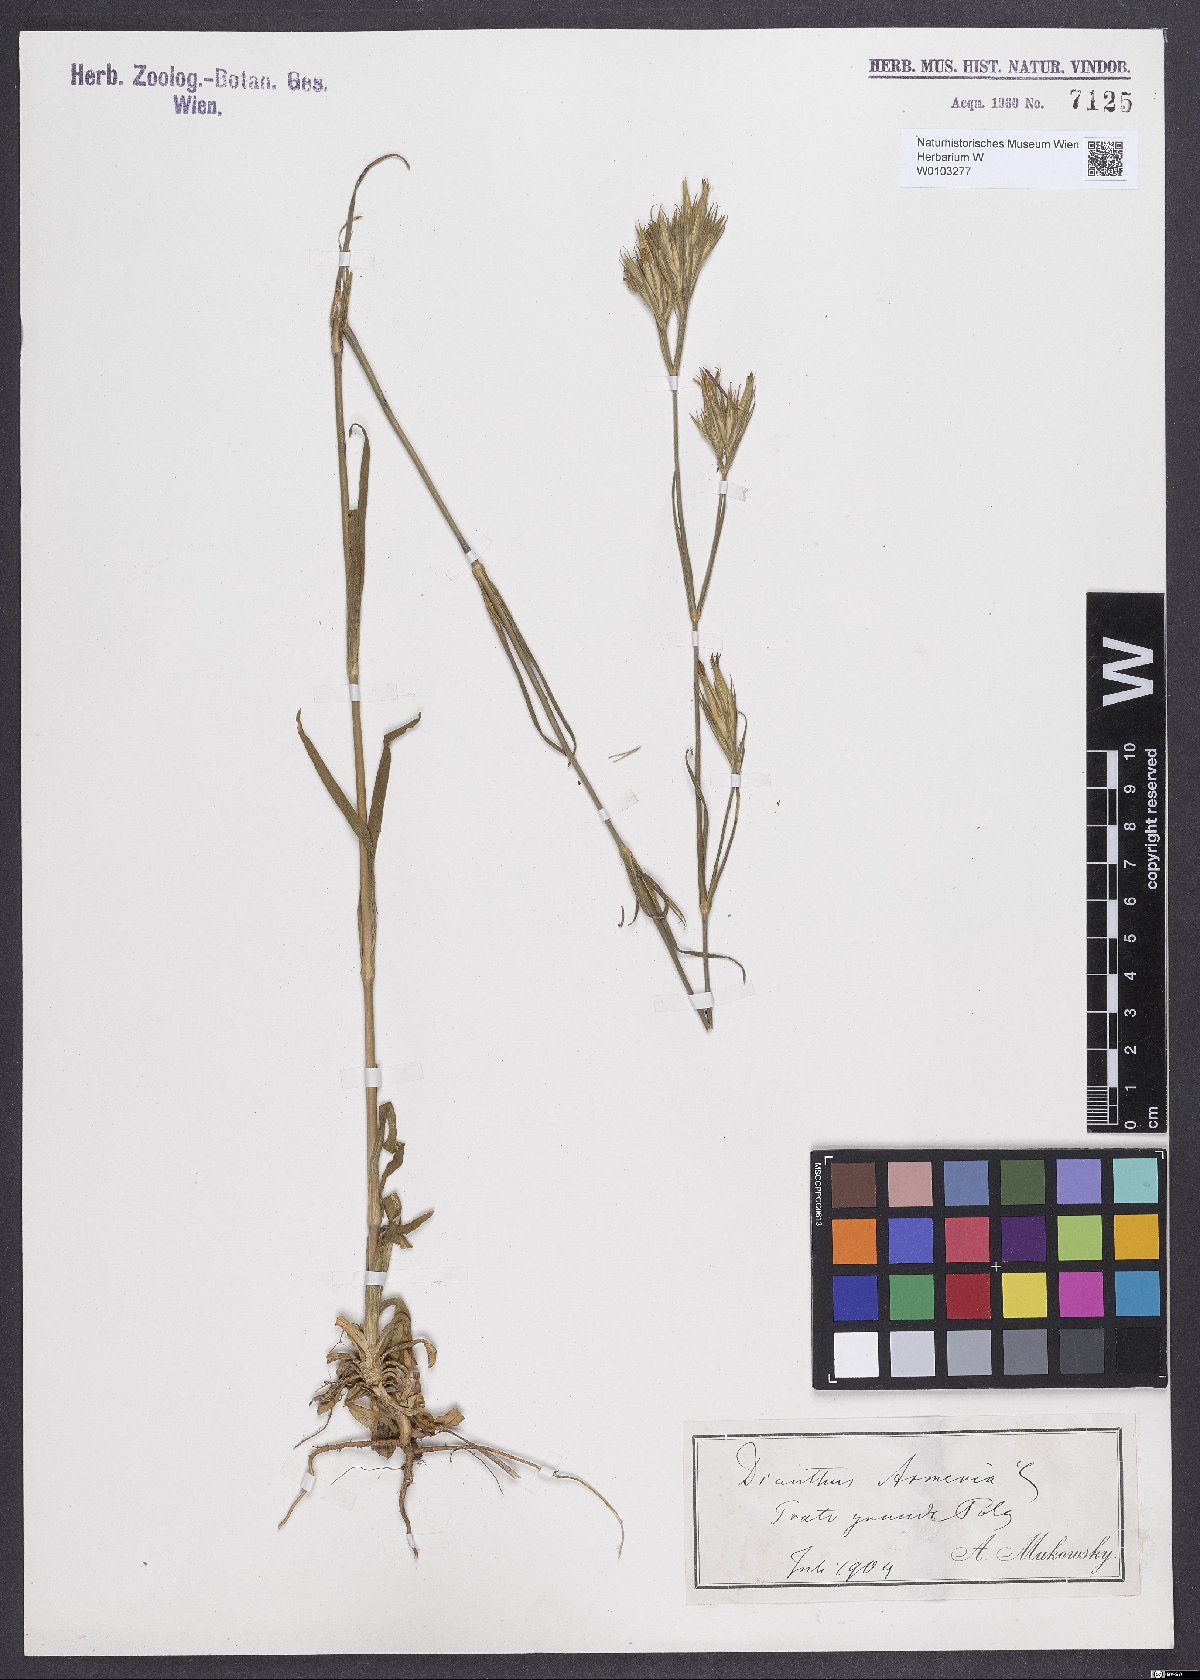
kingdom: Plantae
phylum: Tracheophyta
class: Magnoliopsida
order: Caryophyllales
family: Caryophyllaceae
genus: Dianthus
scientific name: Dianthus armeria
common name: Deptford pink
